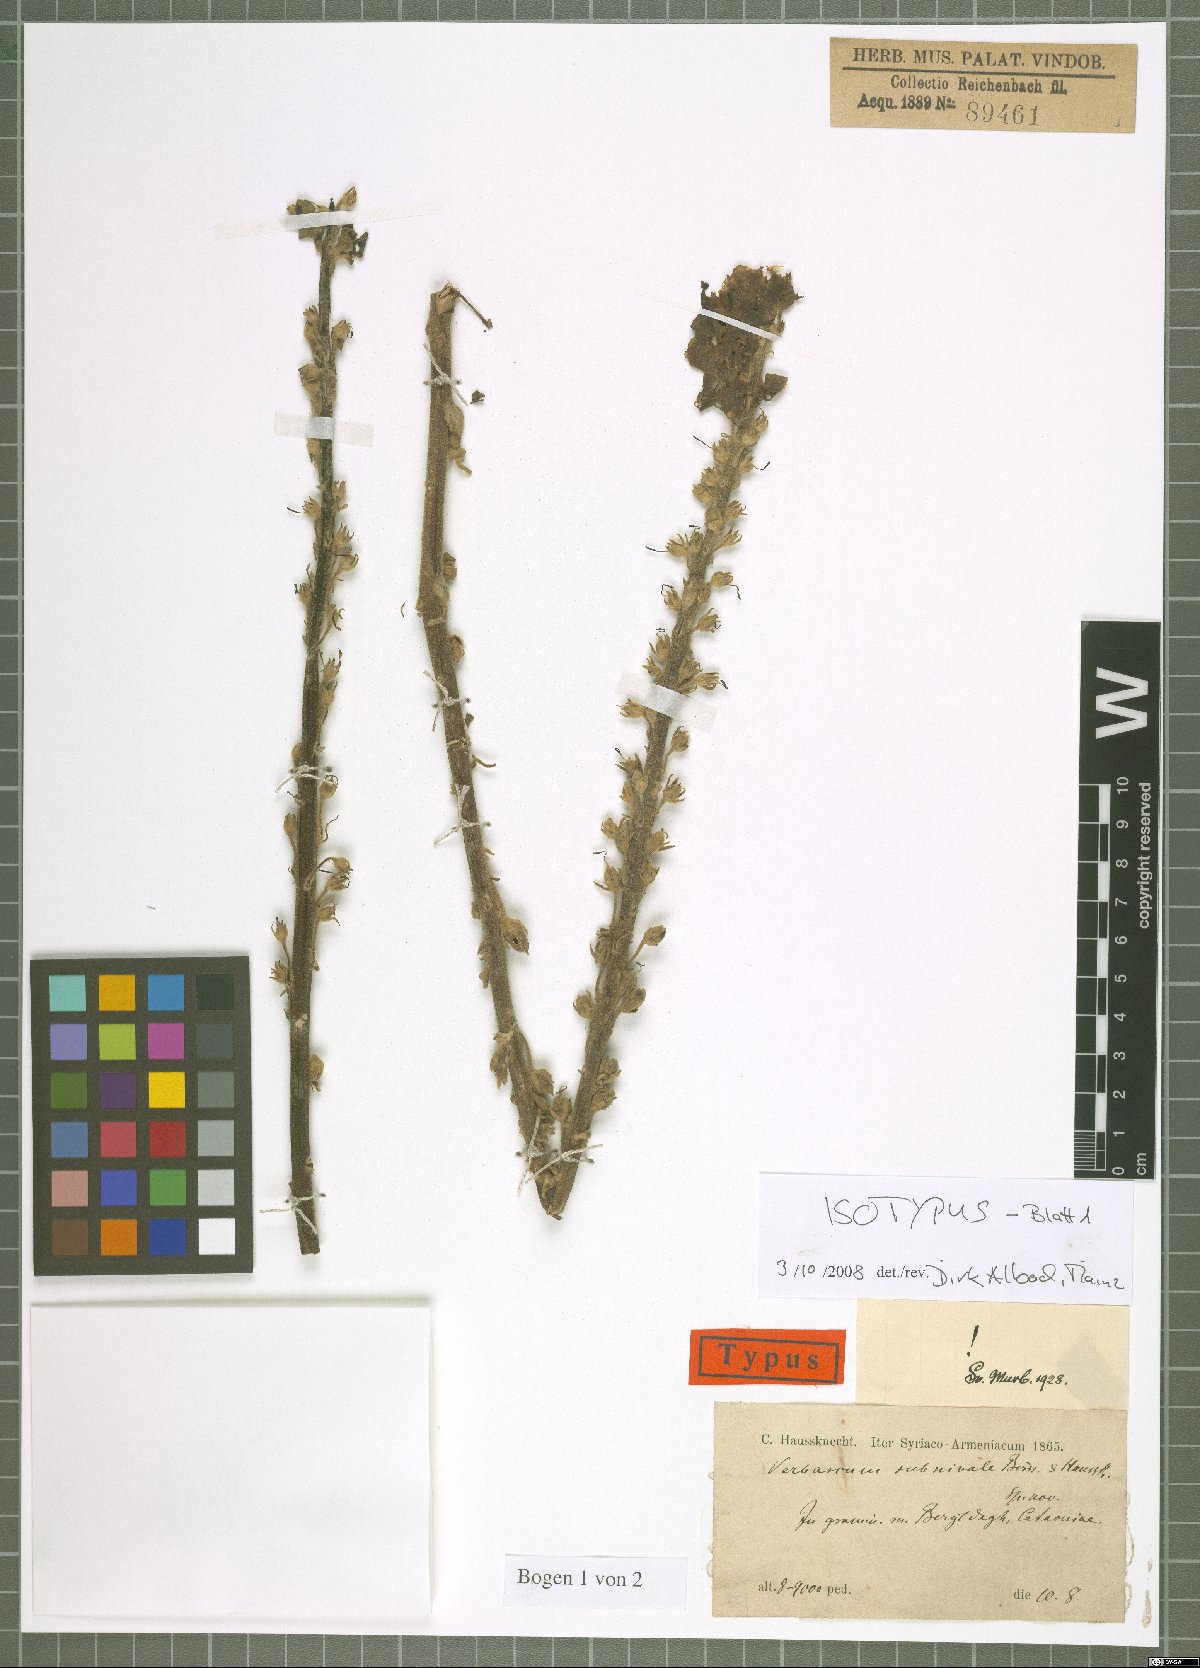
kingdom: Plantae
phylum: Tracheophyta
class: Magnoliopsida
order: Lamiales
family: Scrophulariaceae
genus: Verbascum
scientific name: Verbascum subnivale
